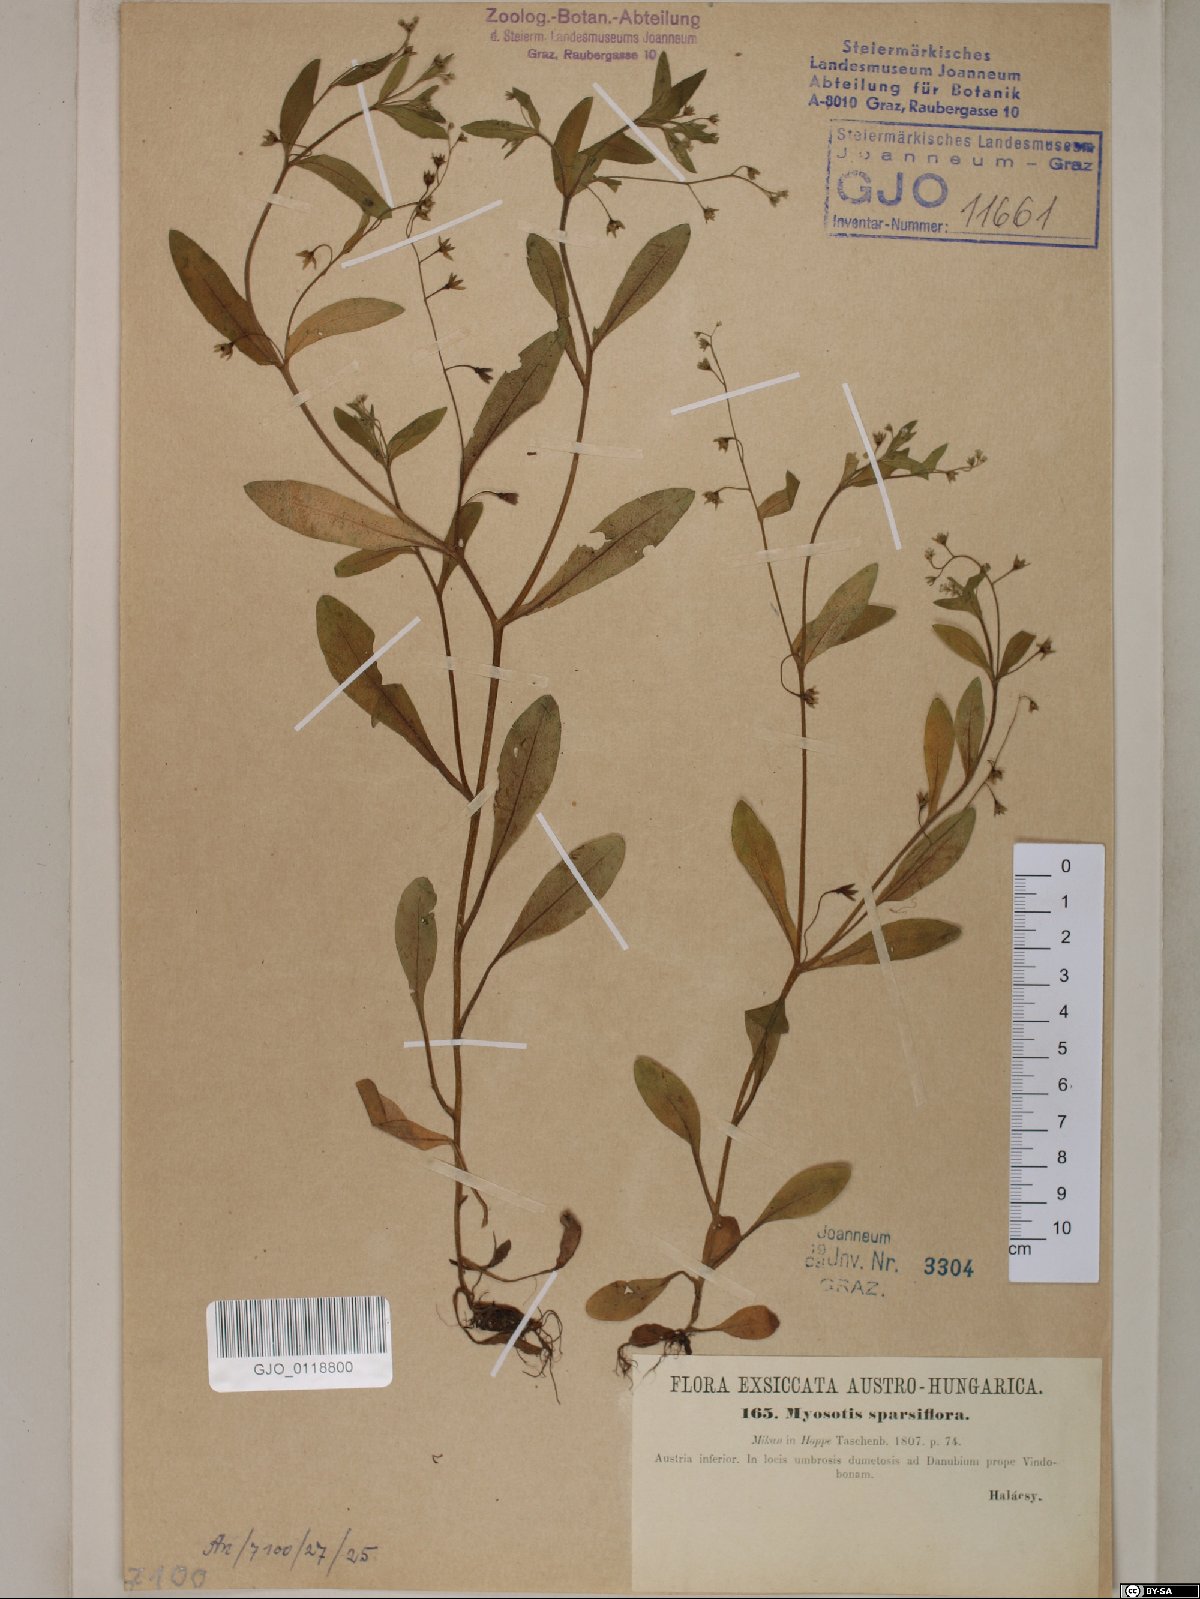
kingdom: Plantae
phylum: Tracheophyta
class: Magnoliopsida
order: Boraginales
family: Boraginaceae
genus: Myosotis
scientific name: Myosotis sparsiflora
